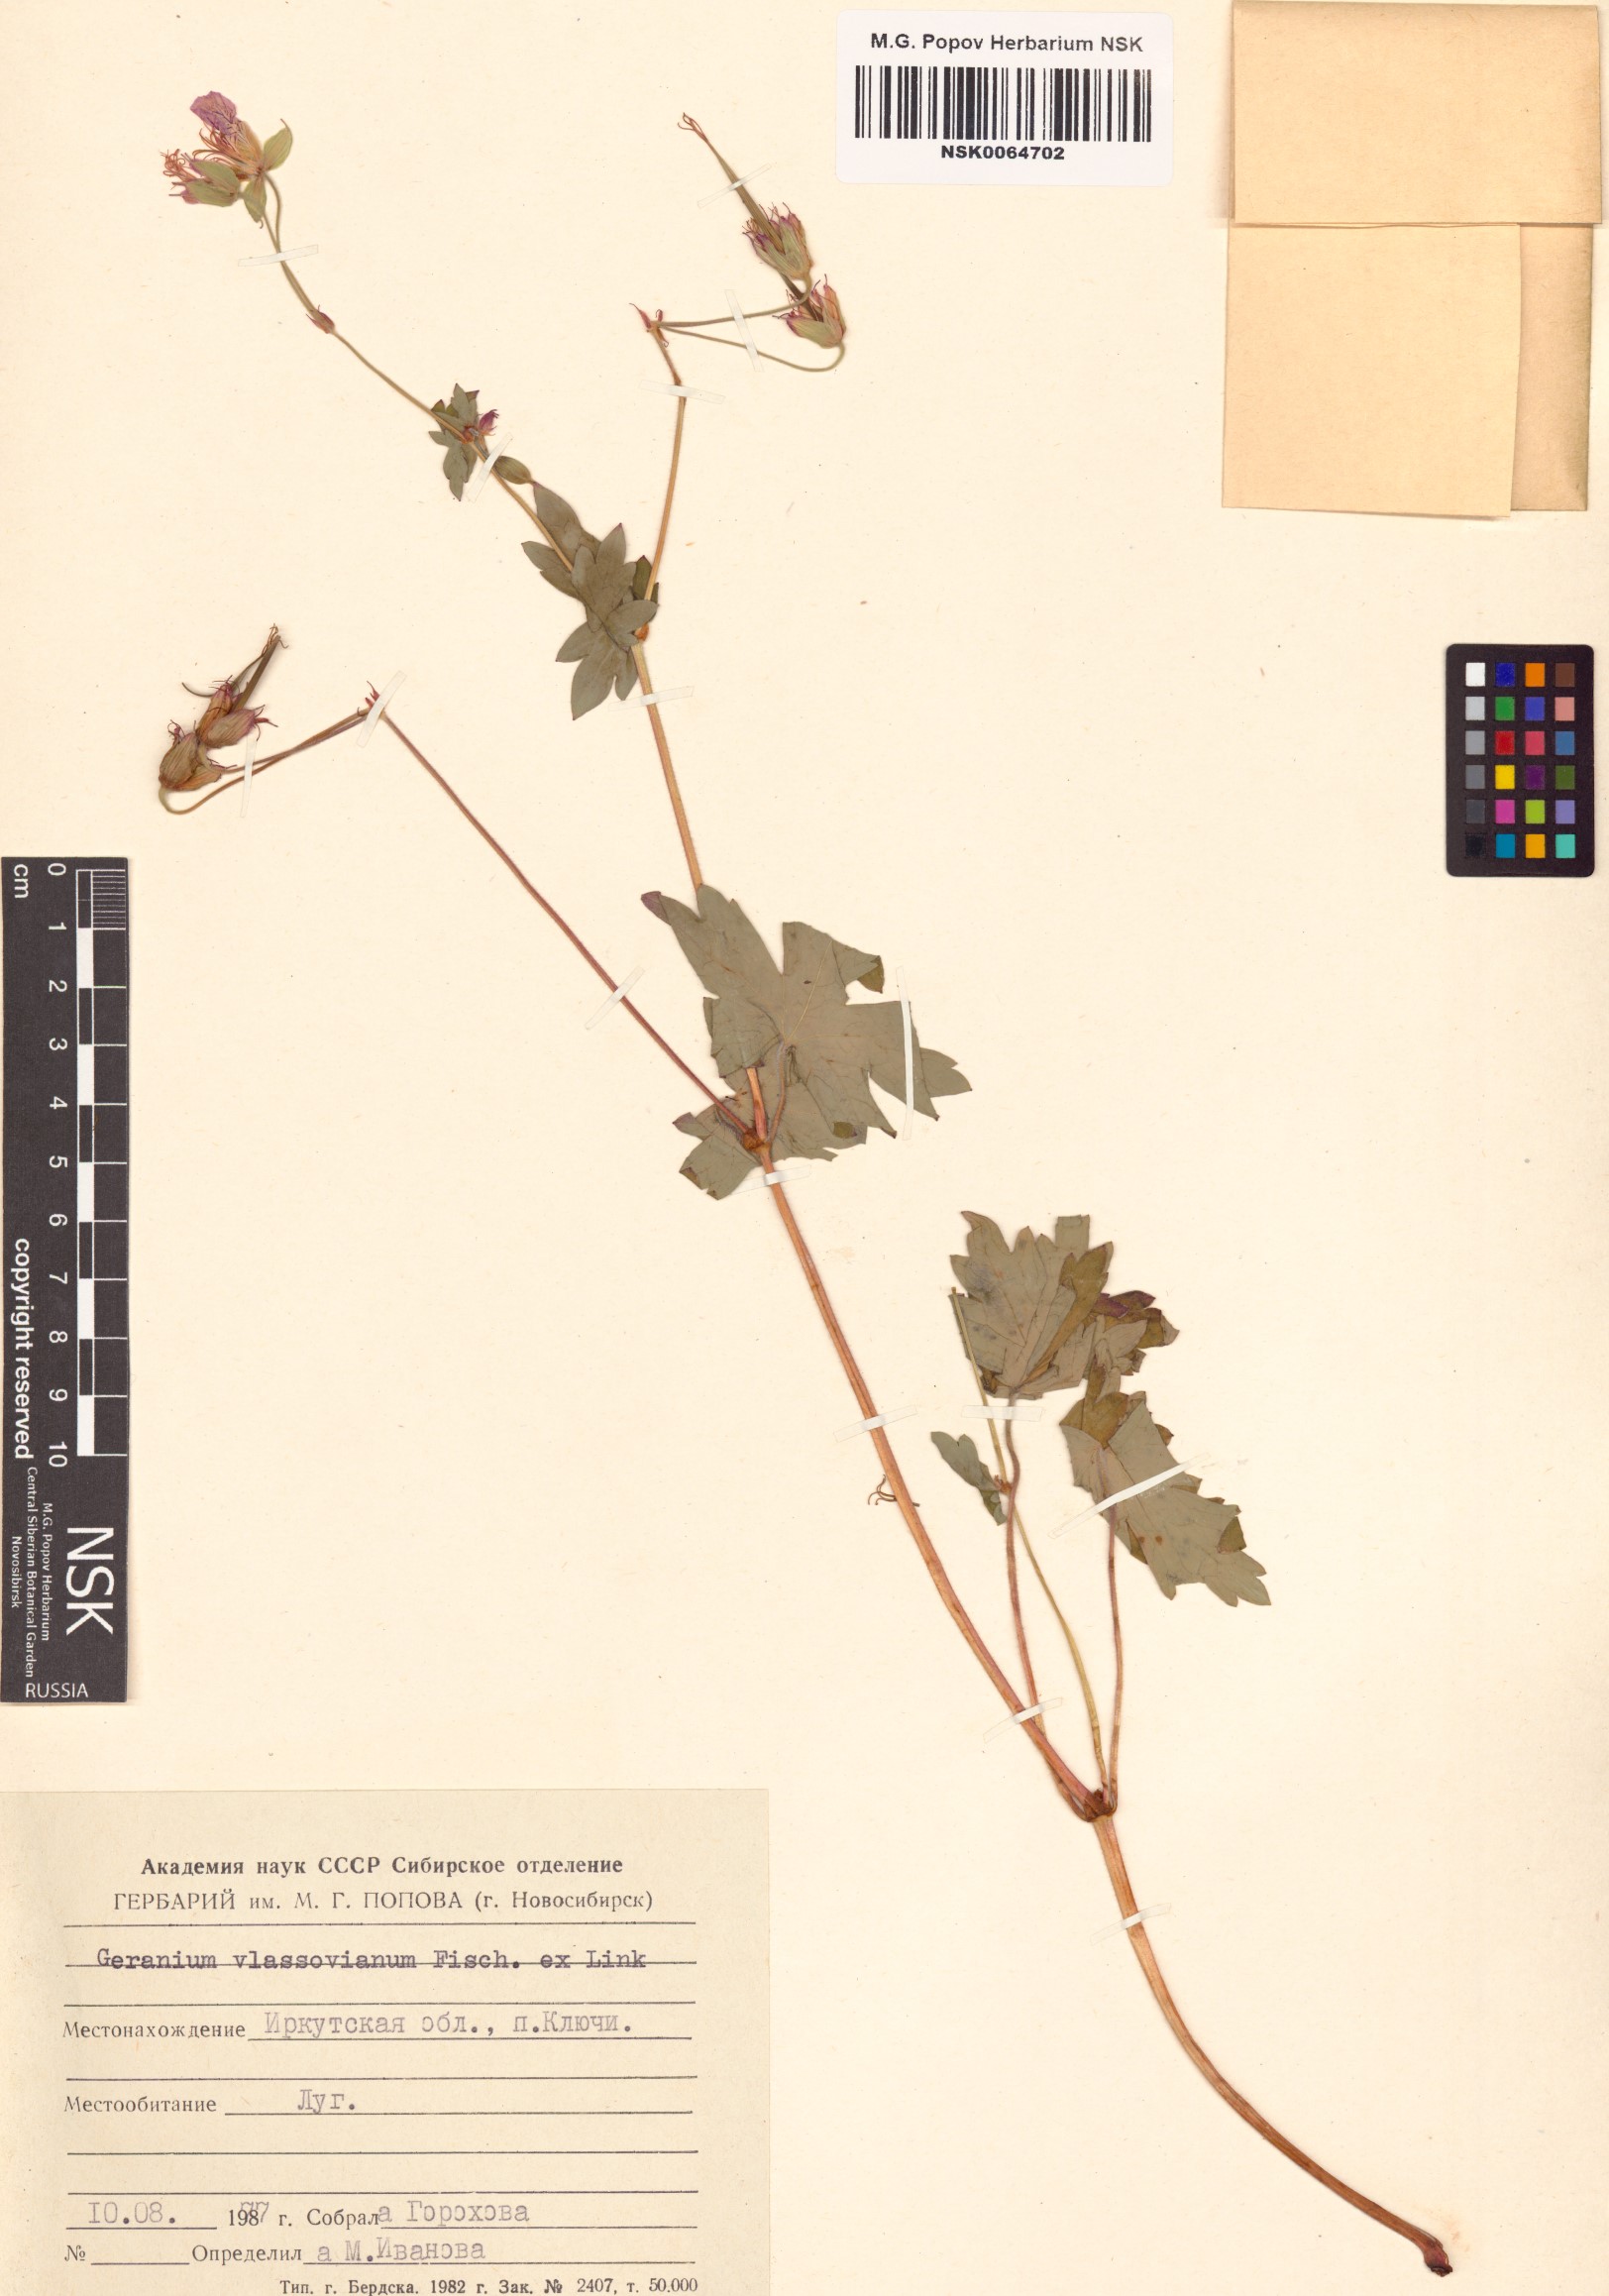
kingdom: Plantae
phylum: Tracheophyta
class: Magnoliopsida
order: Geraniales
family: Geraniaceae
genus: Geranium
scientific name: Geranium wlassovianum
